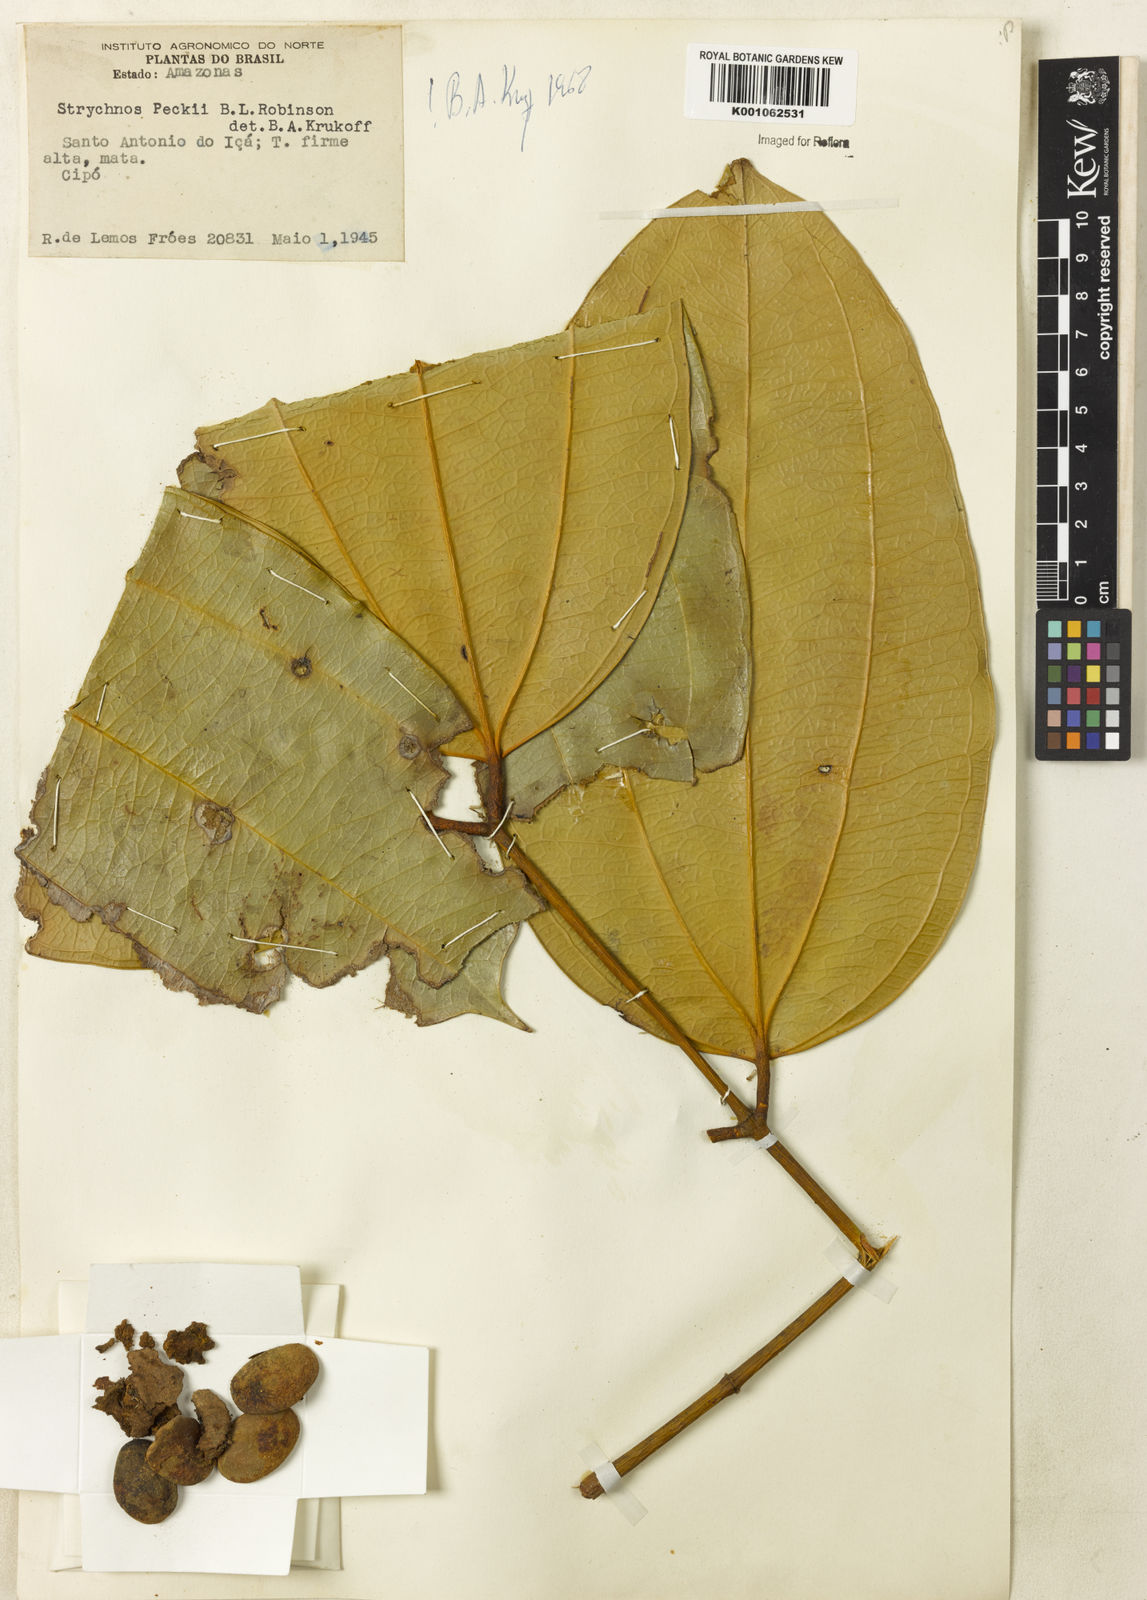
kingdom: Plantae
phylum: Tracheophyta
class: Magnoliopsida
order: Gentianales
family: Loganiaceae
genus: Strychnos
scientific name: Strychnos peckii
